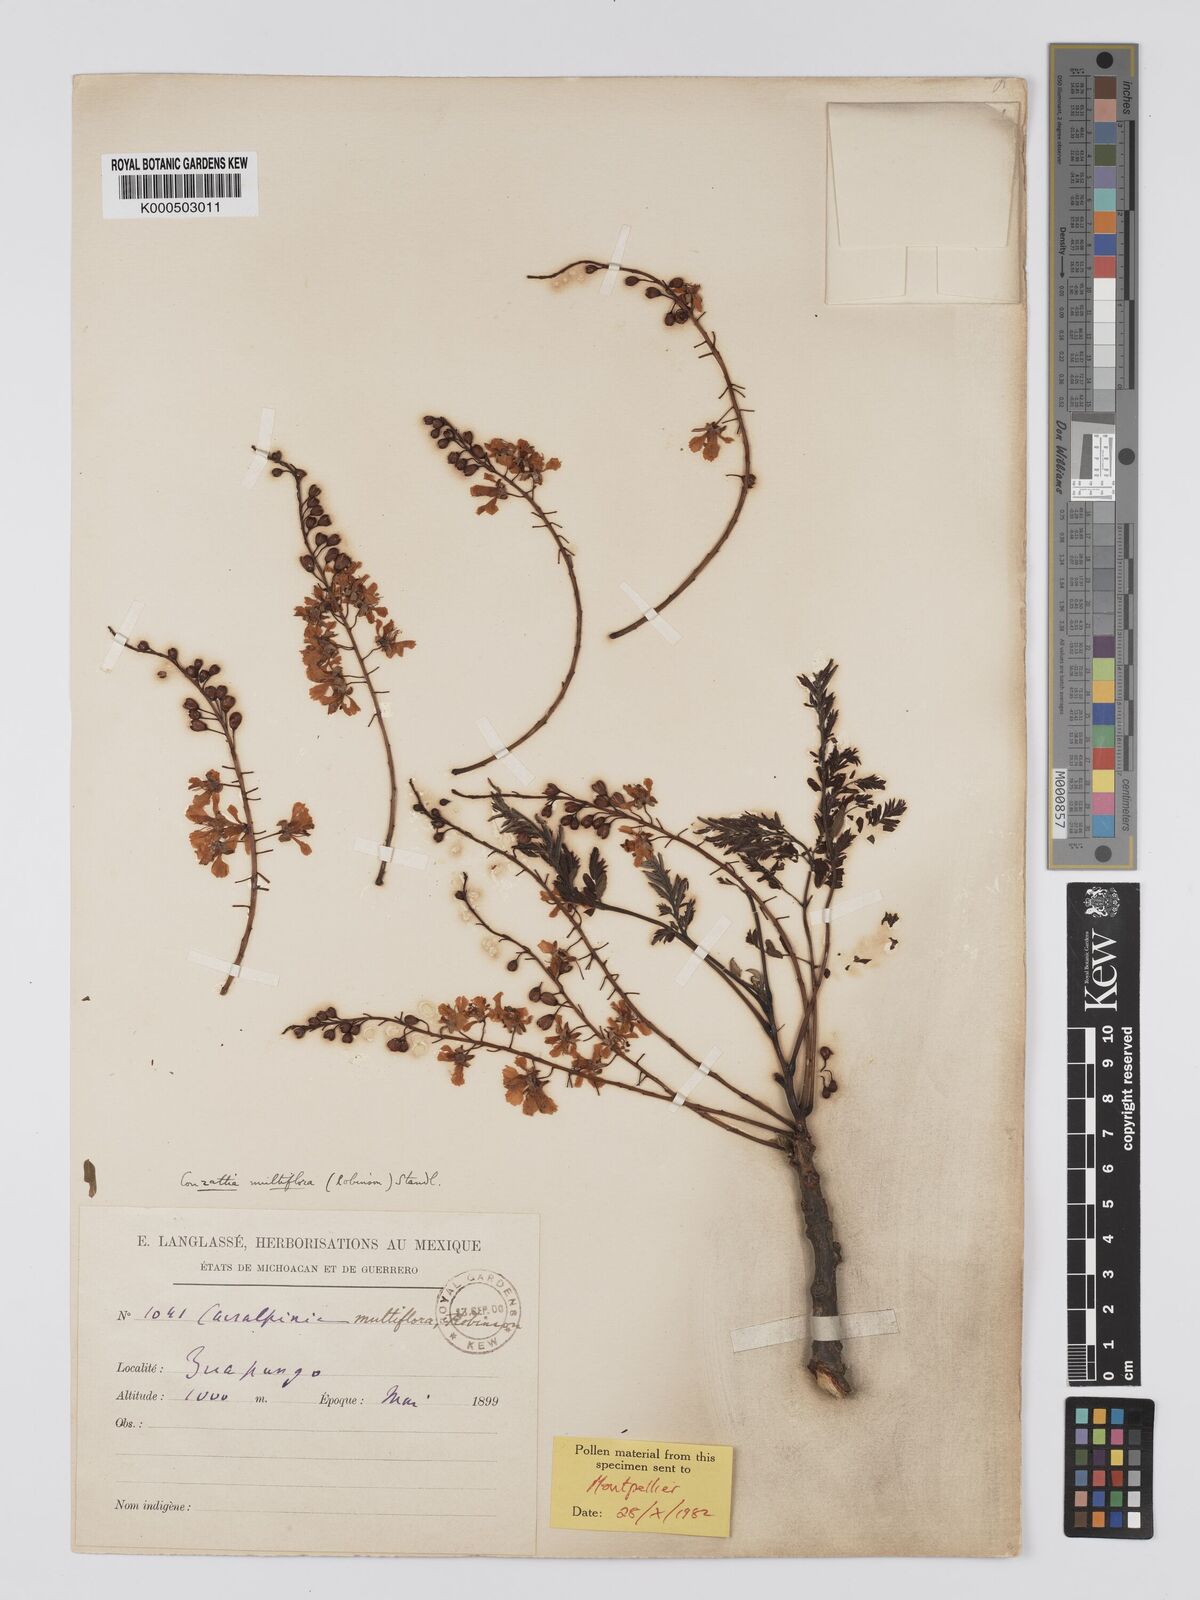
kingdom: Plantae
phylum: Tracheophyta
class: Magnoliopsida
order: Fabales
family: Fabaceae
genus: Conzattia
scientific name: Conzattia multiflora
